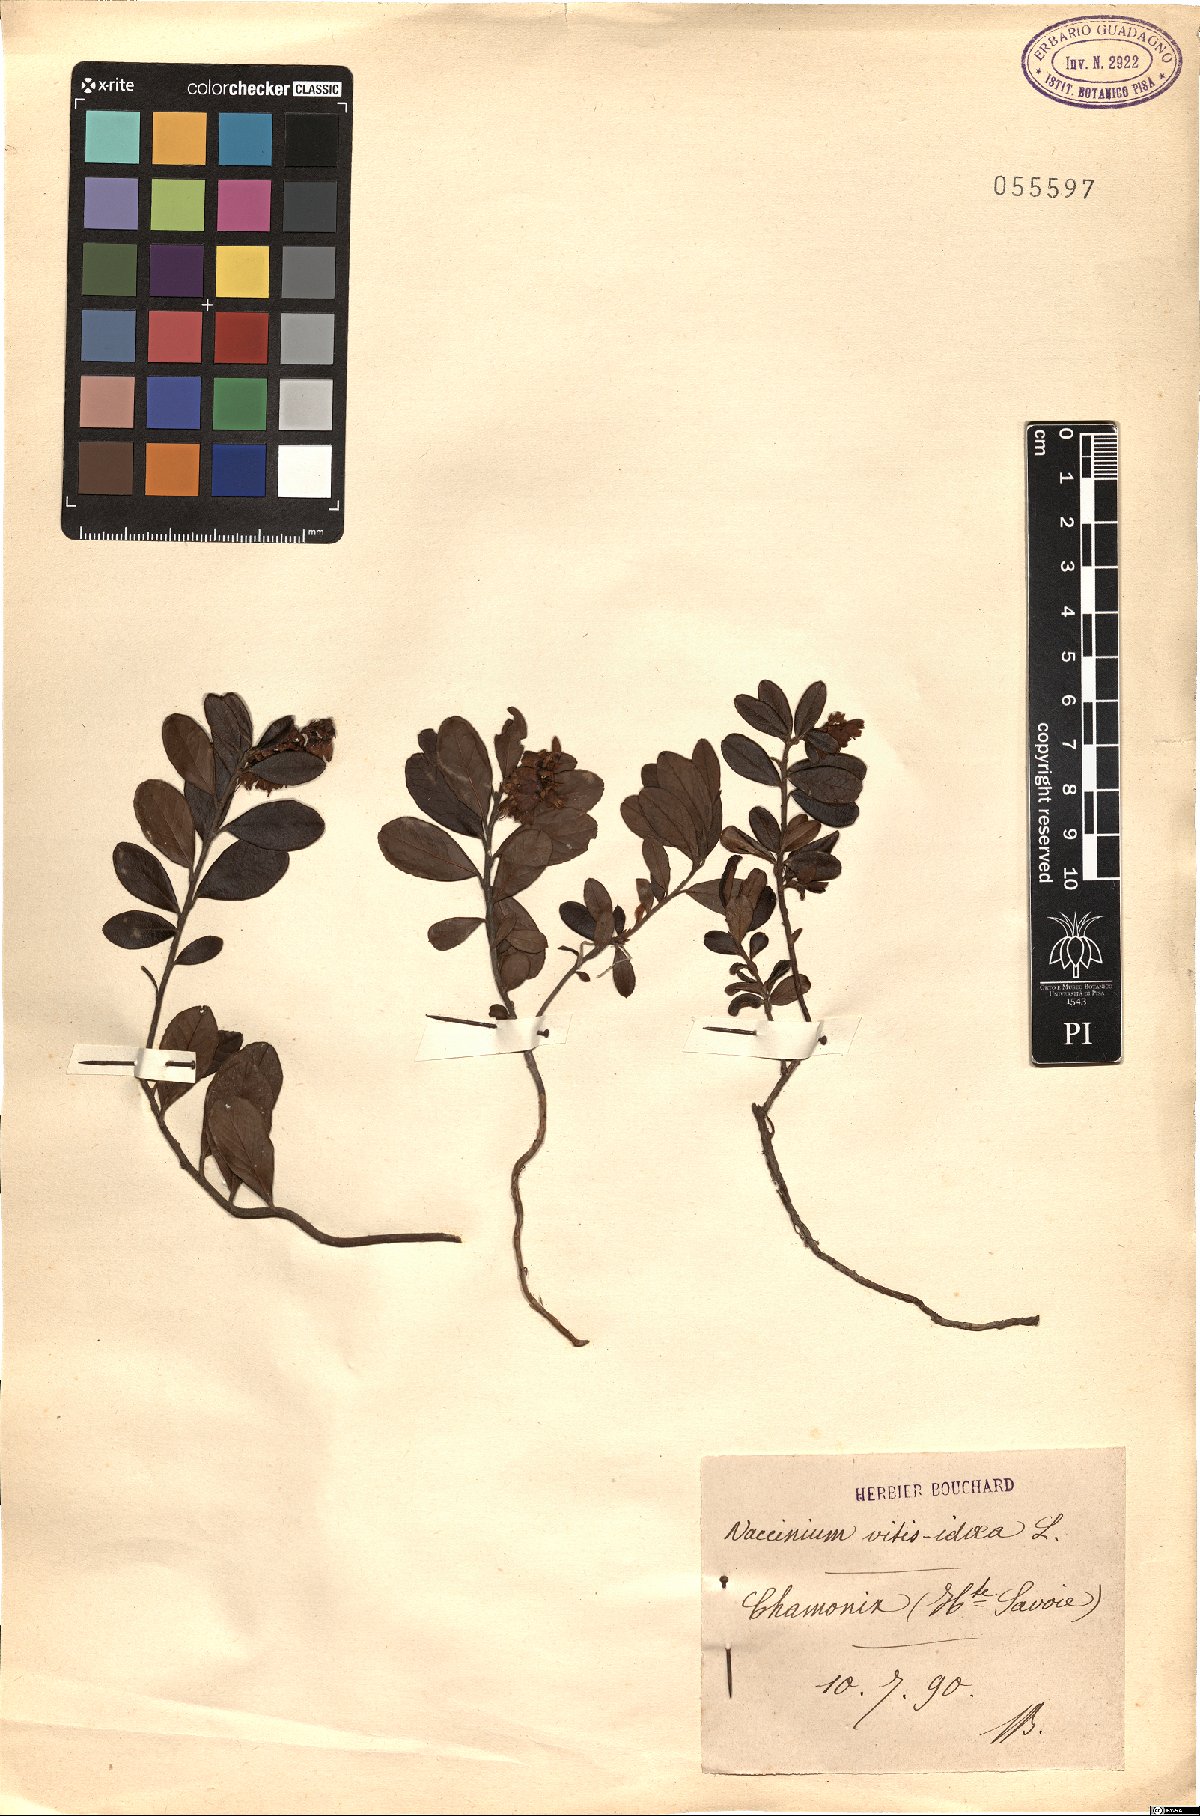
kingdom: Plantae
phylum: Tracheophyta
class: Magnoliopsida
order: Ericales
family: Ericaceae
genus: Vaccinium
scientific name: Vaccinium vitis-idaea
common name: Cowberry
